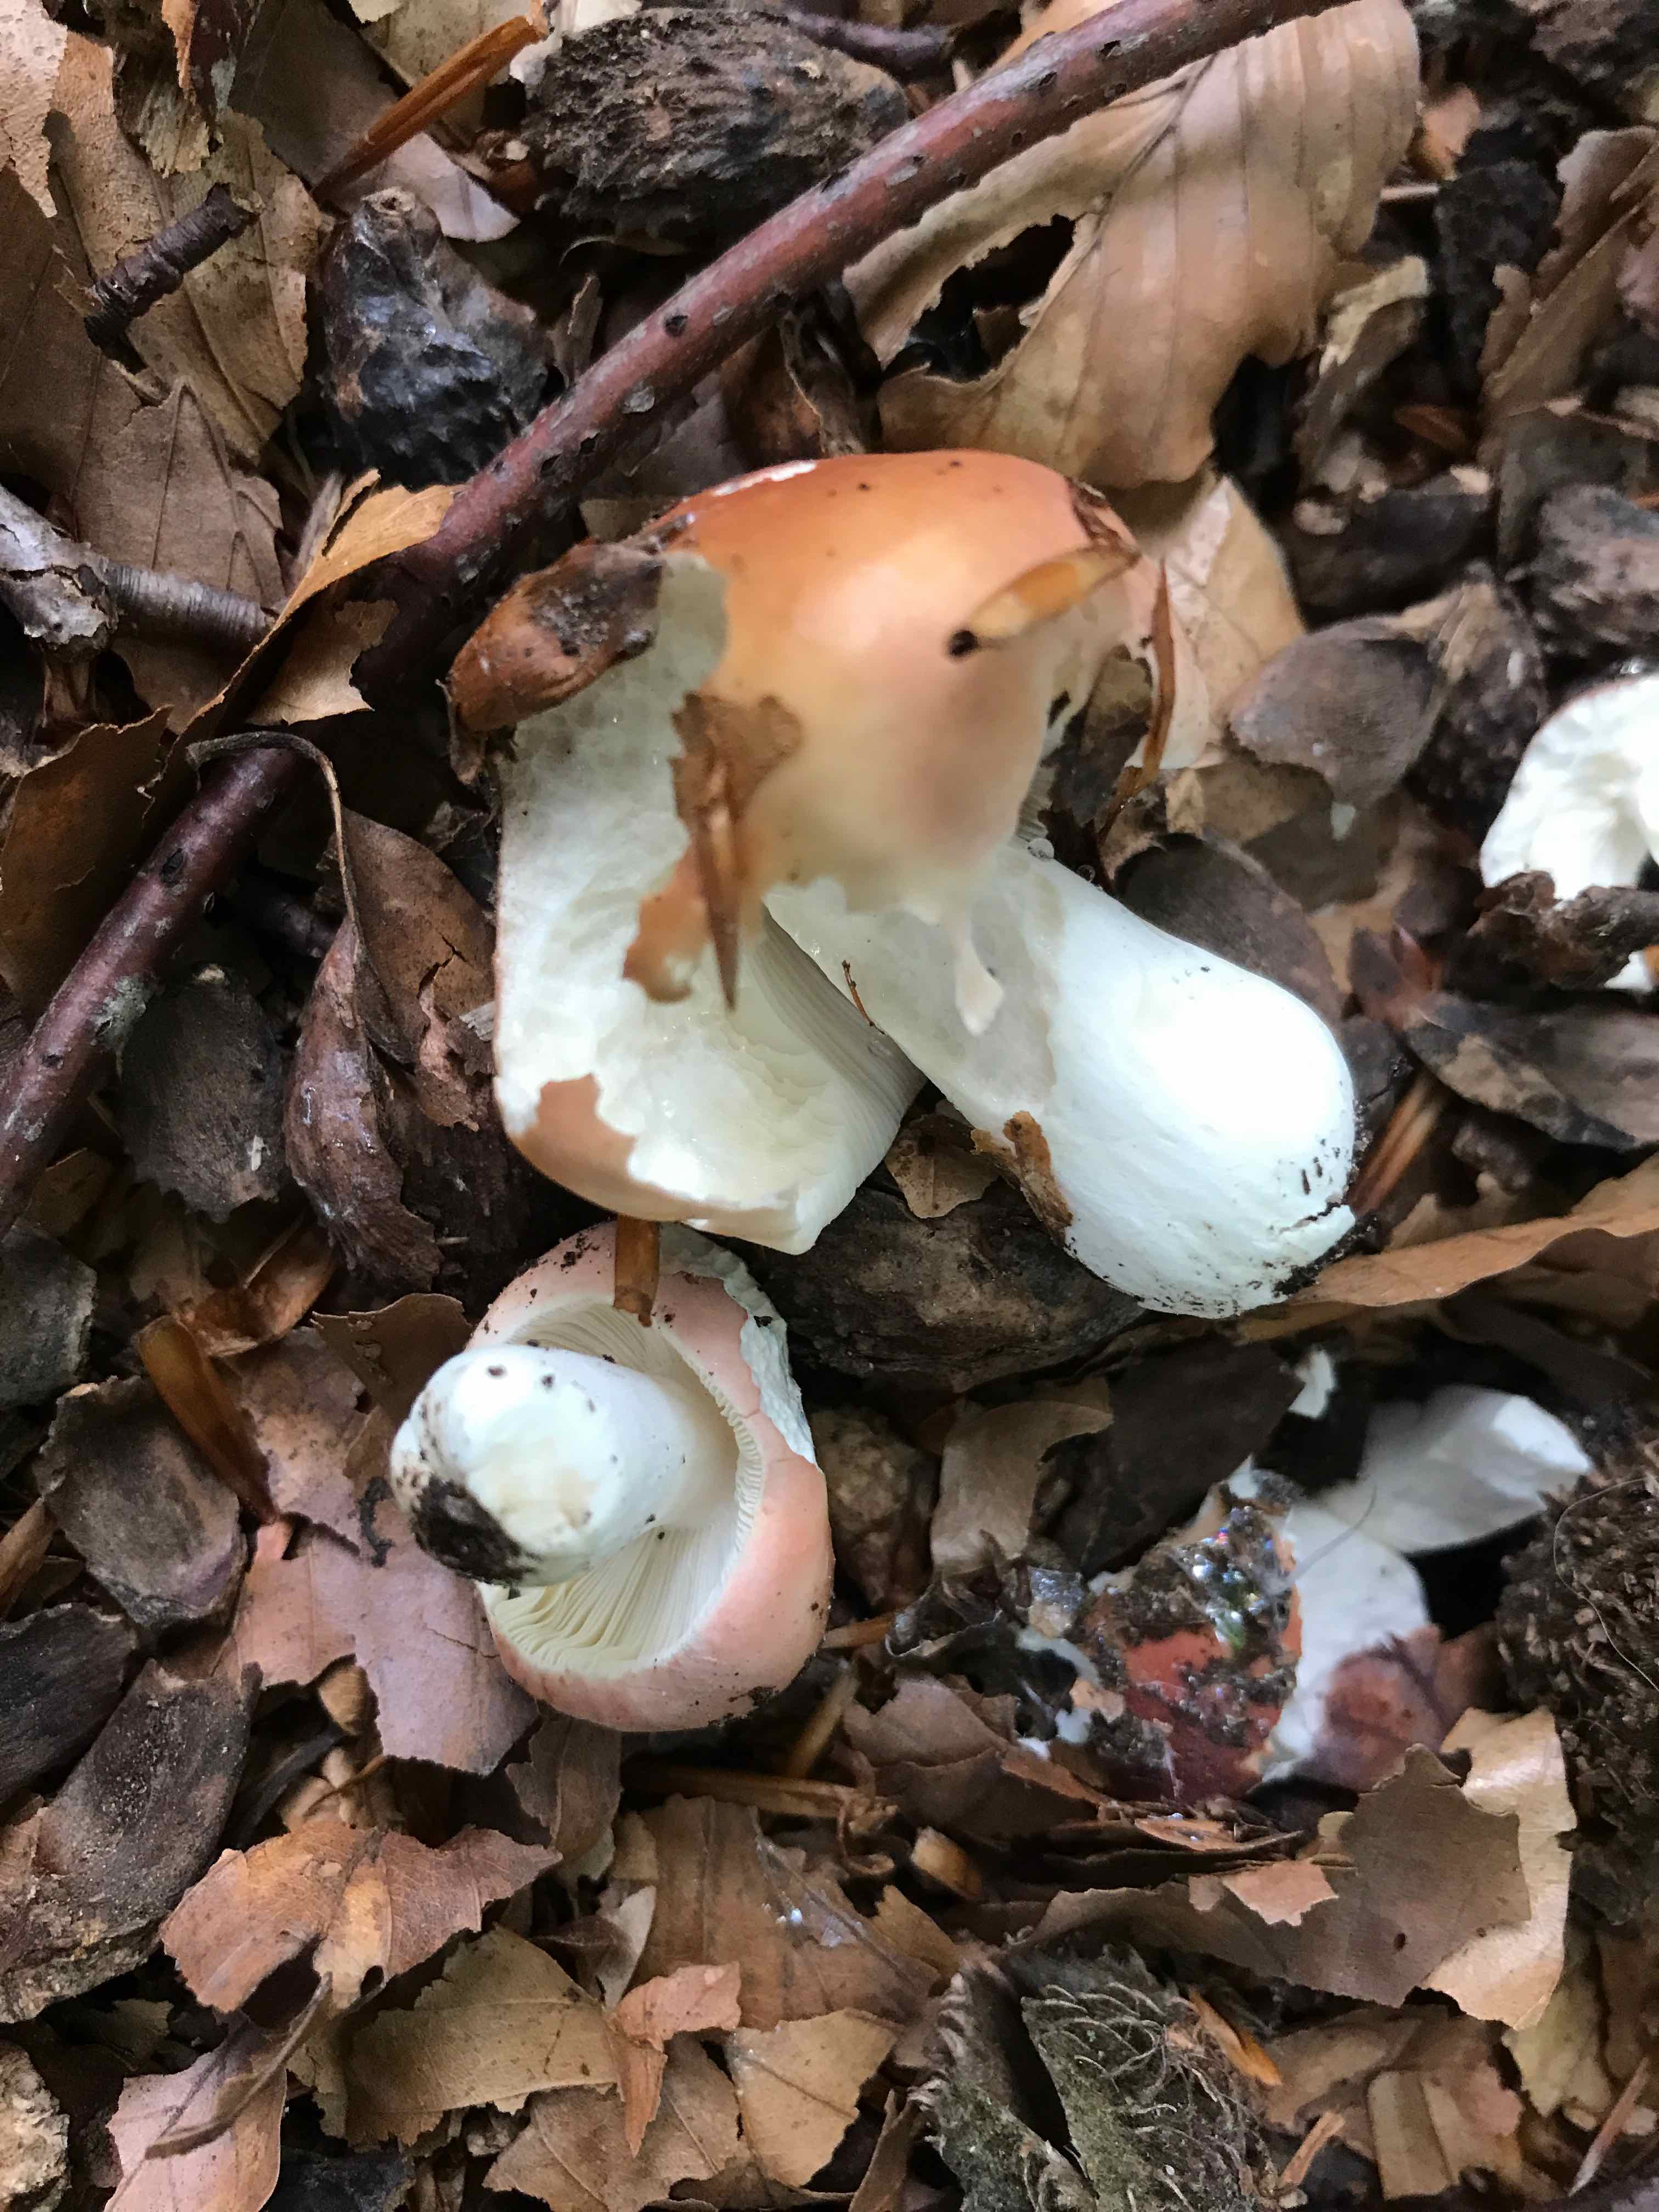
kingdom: Fungi
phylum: Basidiomycota
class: Agaricomycetes
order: Russulales
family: Russulaceae
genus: Russula
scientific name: Russula
